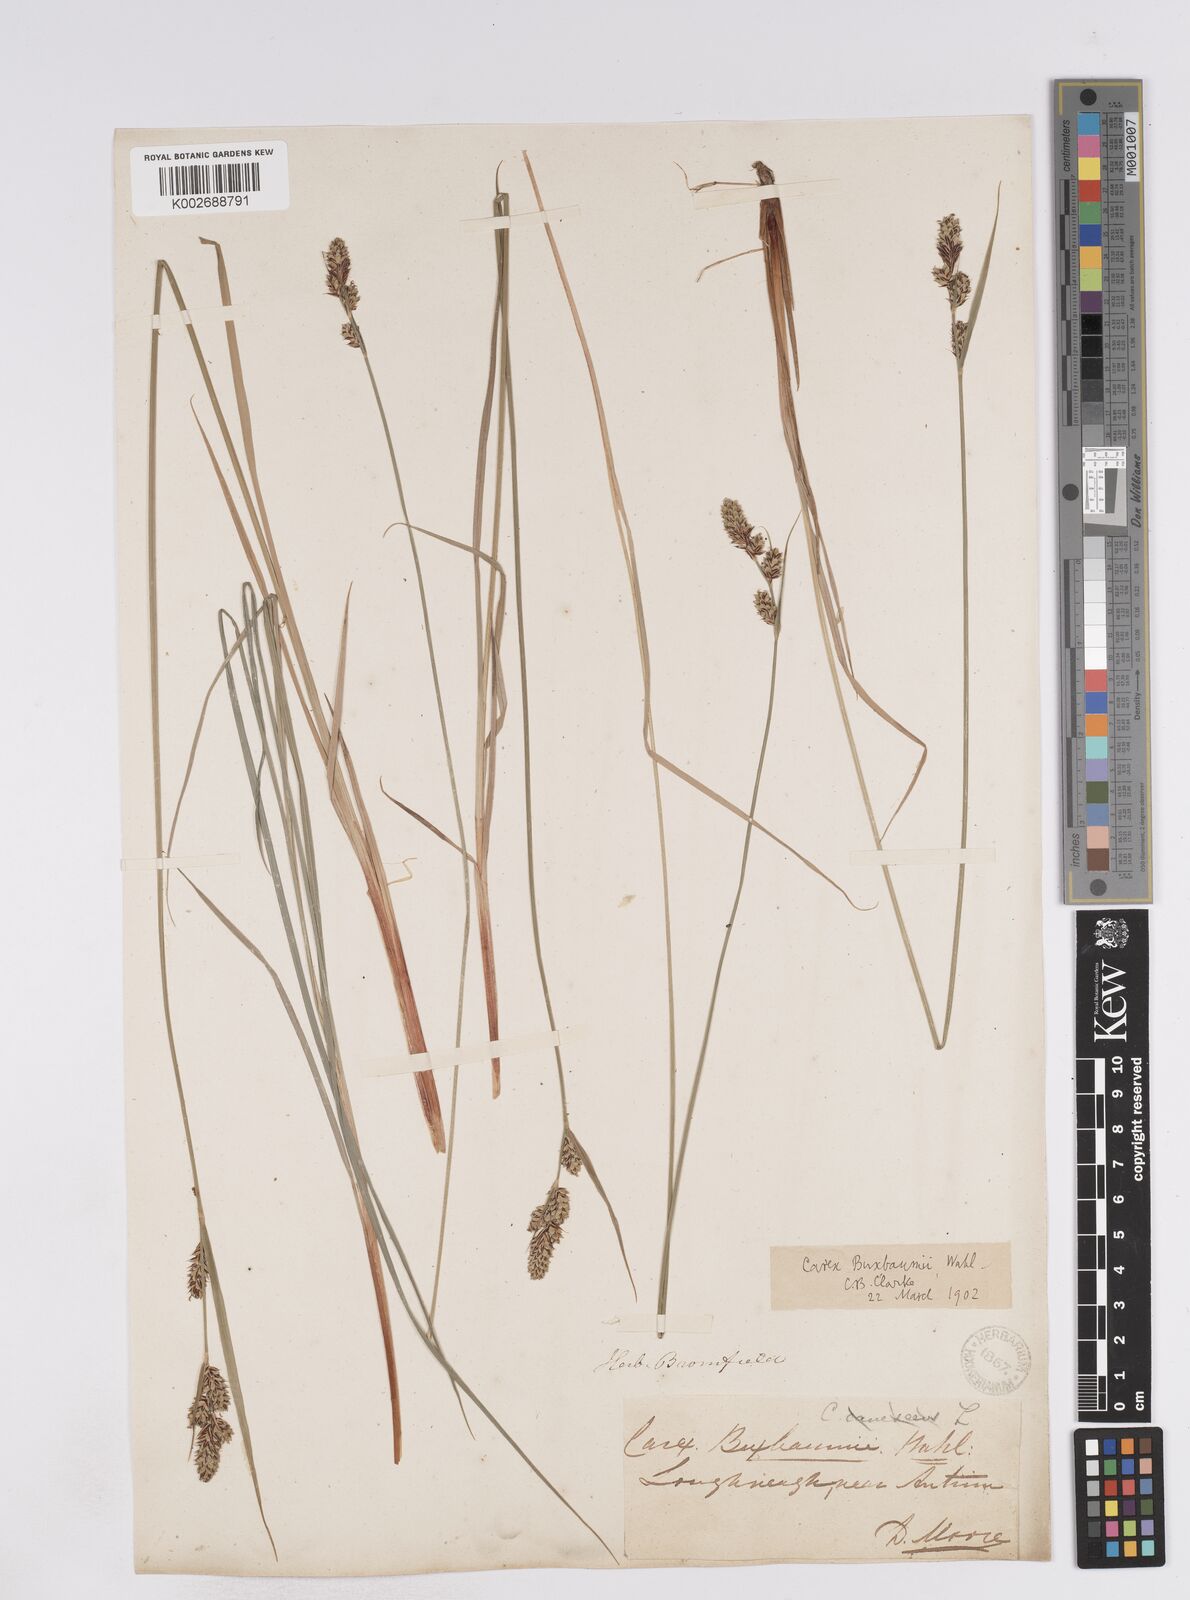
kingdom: Plantae
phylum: Tracheophyta
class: Liliopsida
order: Poales
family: Cyperaceae
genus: Carex
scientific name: Carex buxbaumii
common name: Club sedge
